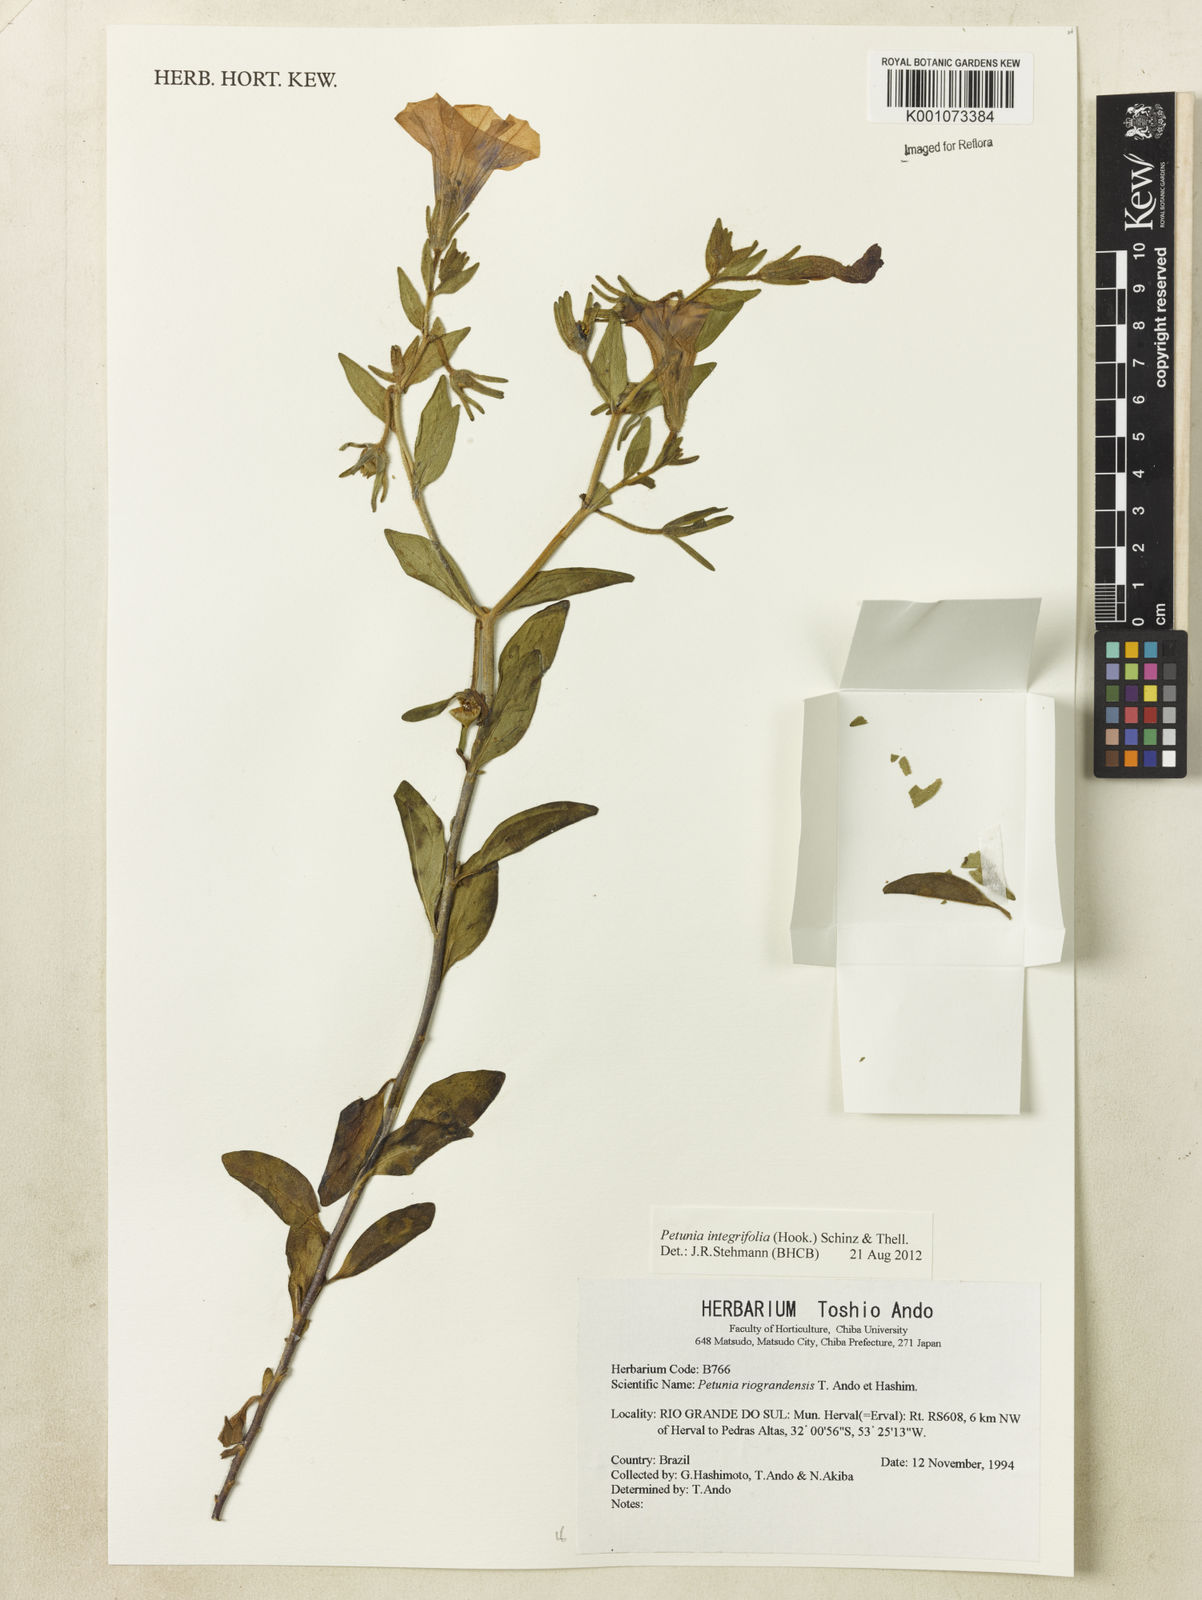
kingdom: Plantae
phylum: Tracheophyta
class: Magnoliopsida
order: Solanales
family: Solanaceae
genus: Petunia
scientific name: Petunia integrifolia
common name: Violet-flower petunia
